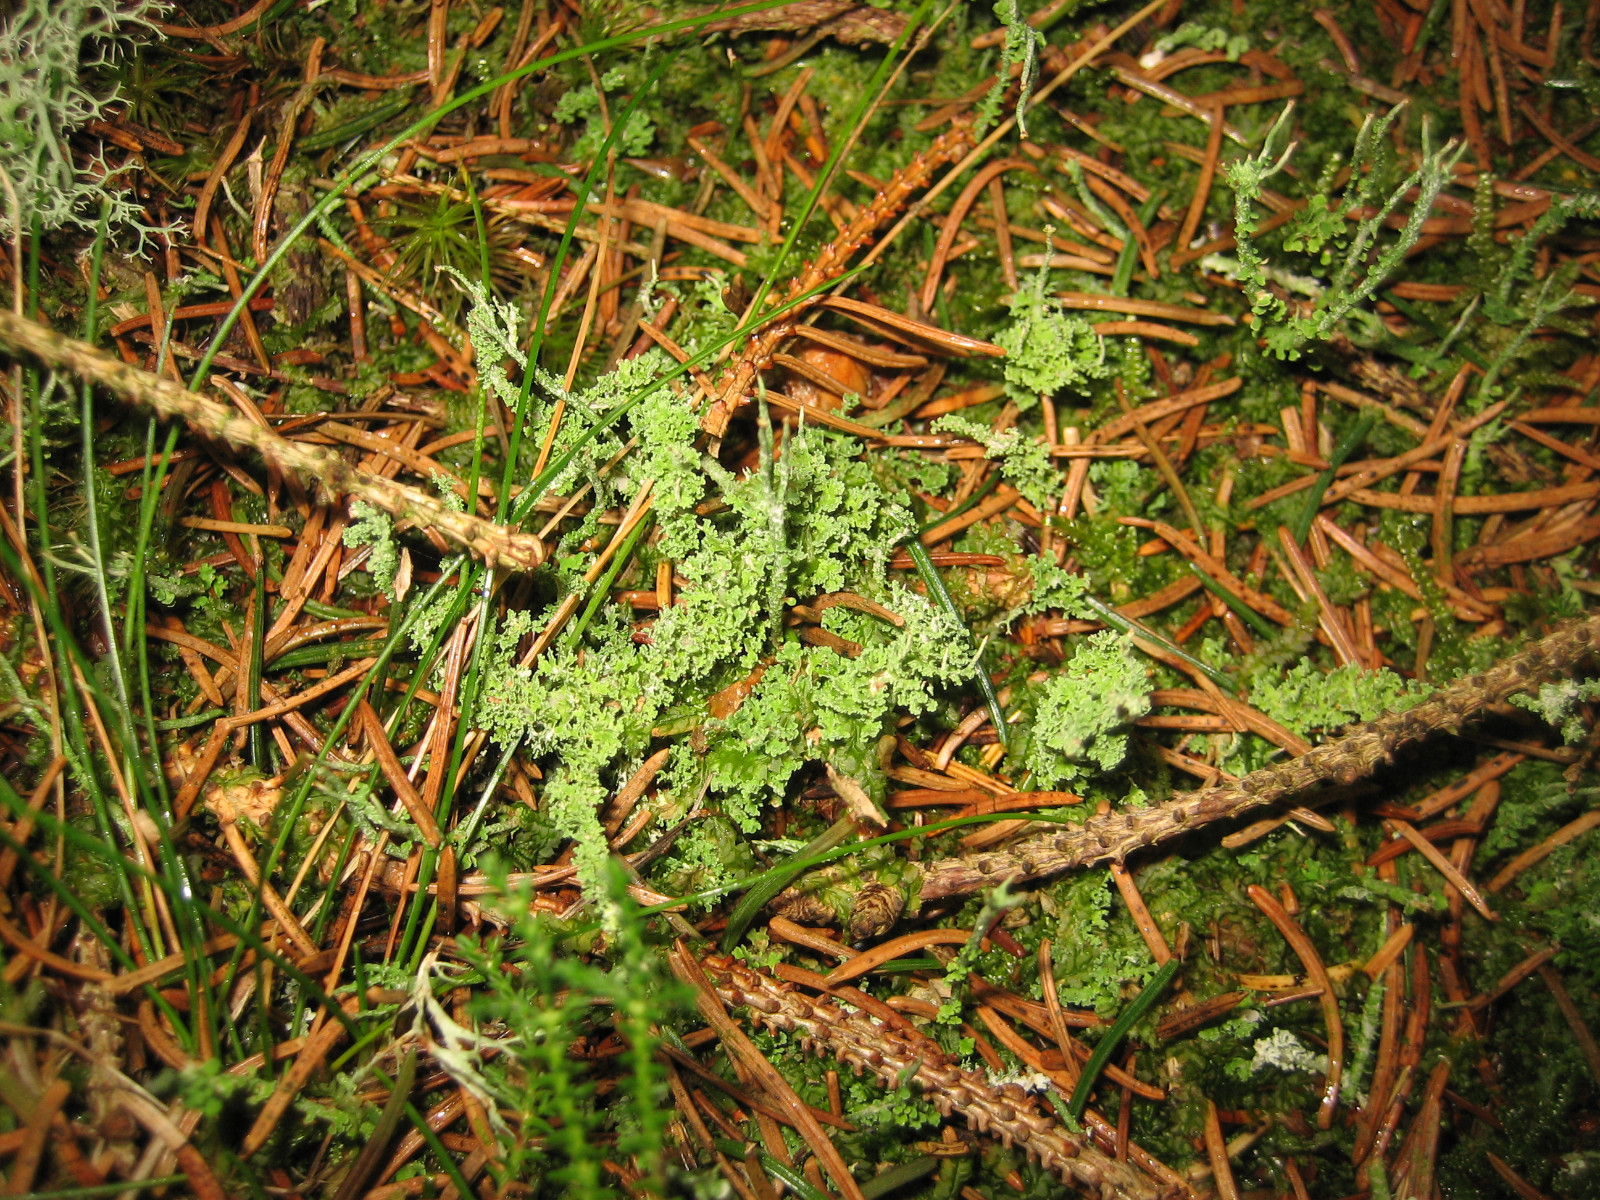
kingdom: Fungi
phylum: Ascomycota
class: Lecanoromycetes
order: Lecanorales
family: Cladoniaceae
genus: Cladonia
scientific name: Cladonia squamosa
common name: skælklædt bægerlav
